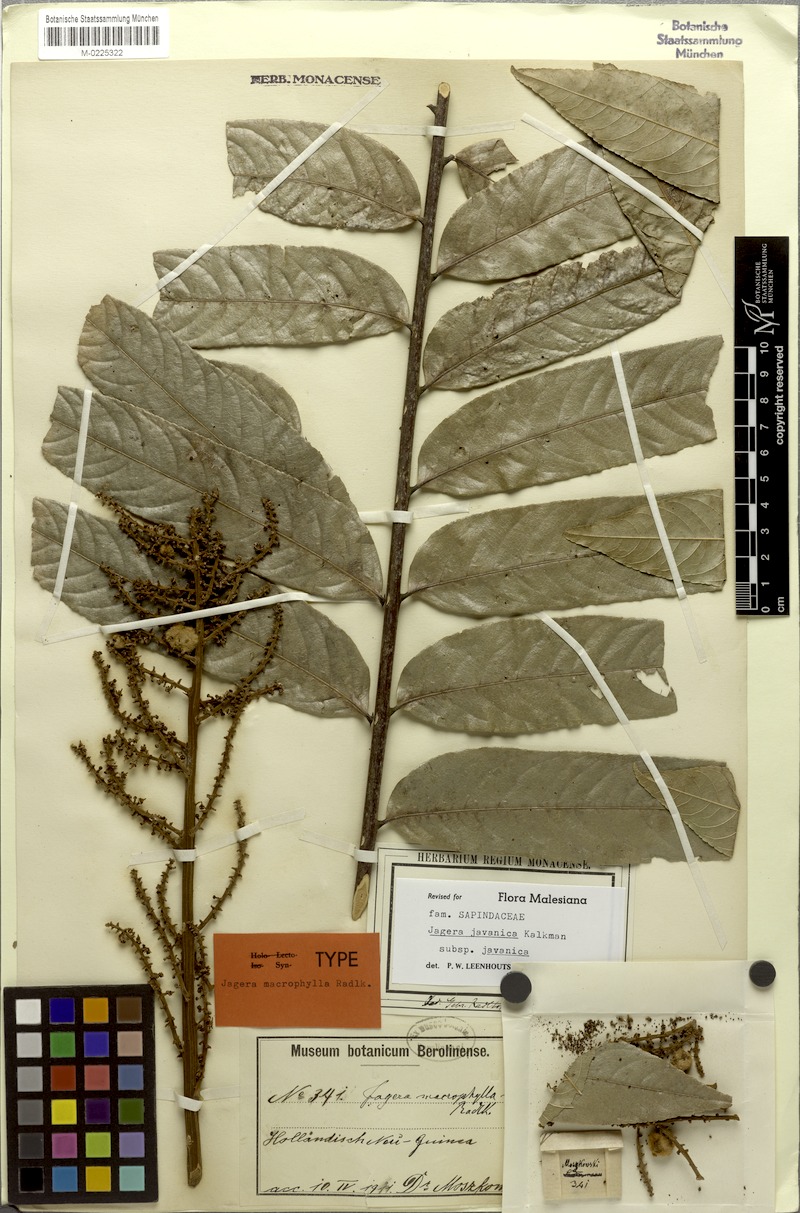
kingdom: Plantae
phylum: Tracheophyta
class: Magnoliopsida
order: Sapindales
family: Sapindaceae
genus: Jagera
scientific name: Jagera javanica
